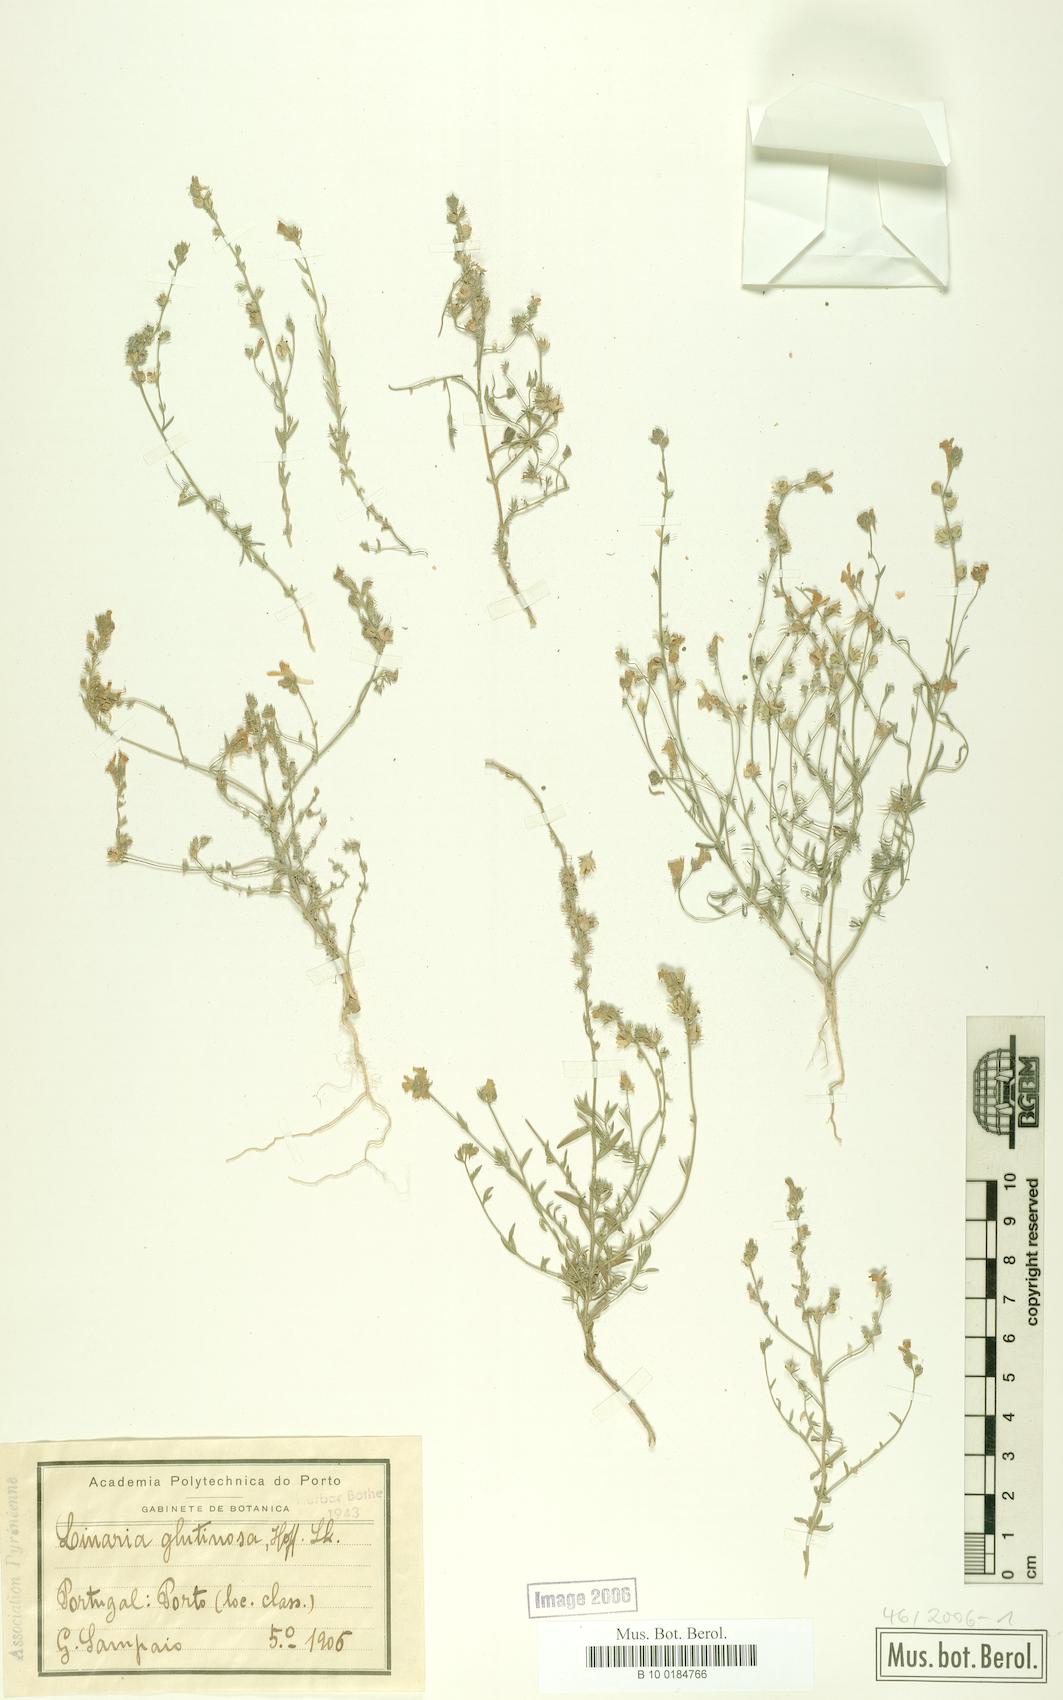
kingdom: Plantae
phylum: Tracheophyta
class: Magnoliopsida
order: Lamiales
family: Plantaginaceae
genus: Linaria
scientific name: Linaria bipunctata
